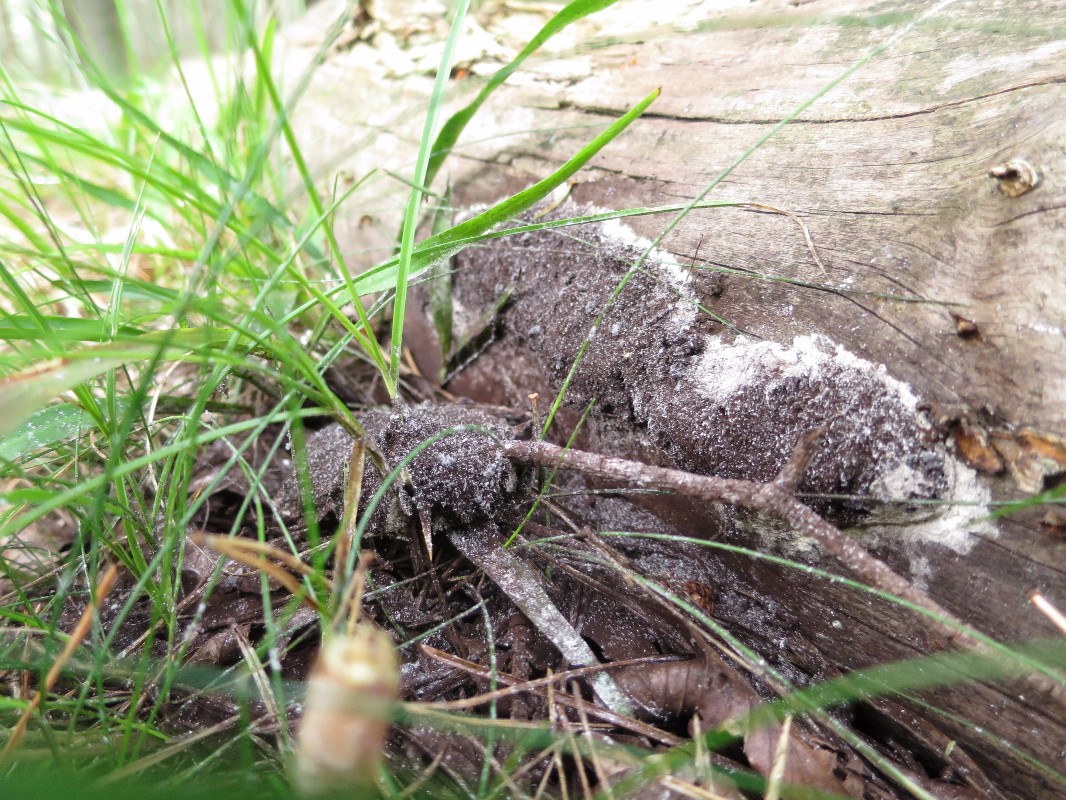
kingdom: Protozoa
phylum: Mycetozoa
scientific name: Mycetozoa
